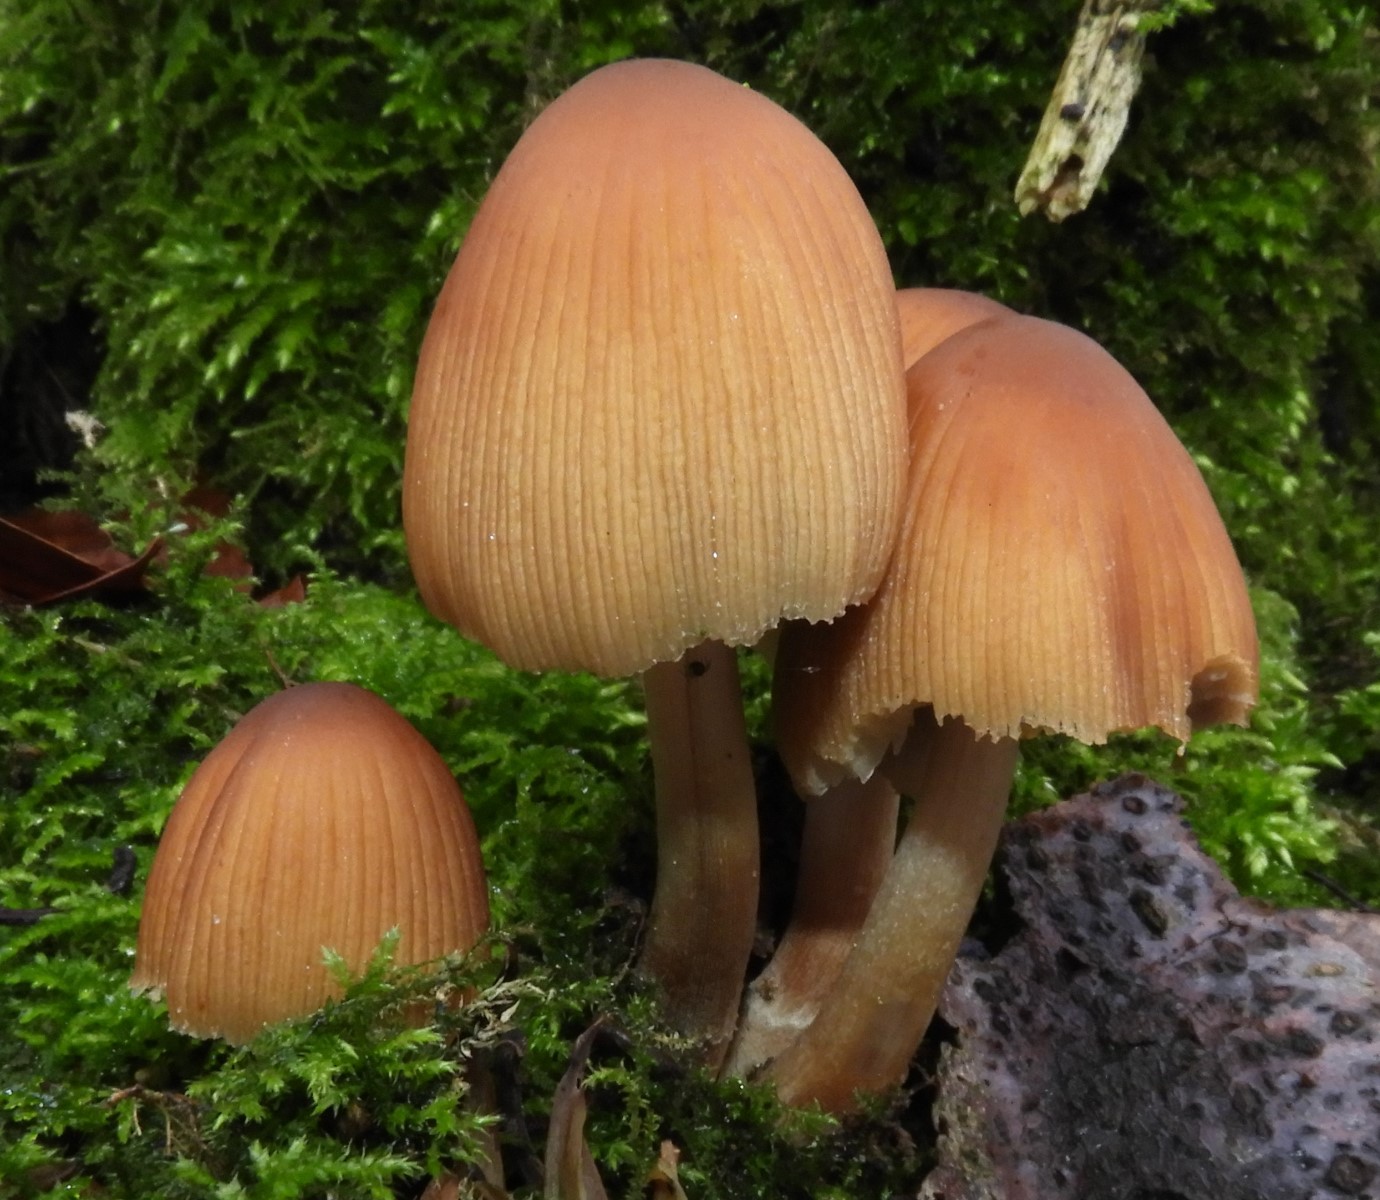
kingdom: Fungi
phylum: Basidiomycota
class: Agaricomycetes
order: Agaricales
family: Psathyrellaceae
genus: Coprinellus
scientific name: Coprinellus micaceus
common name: glimmer-blækhat
